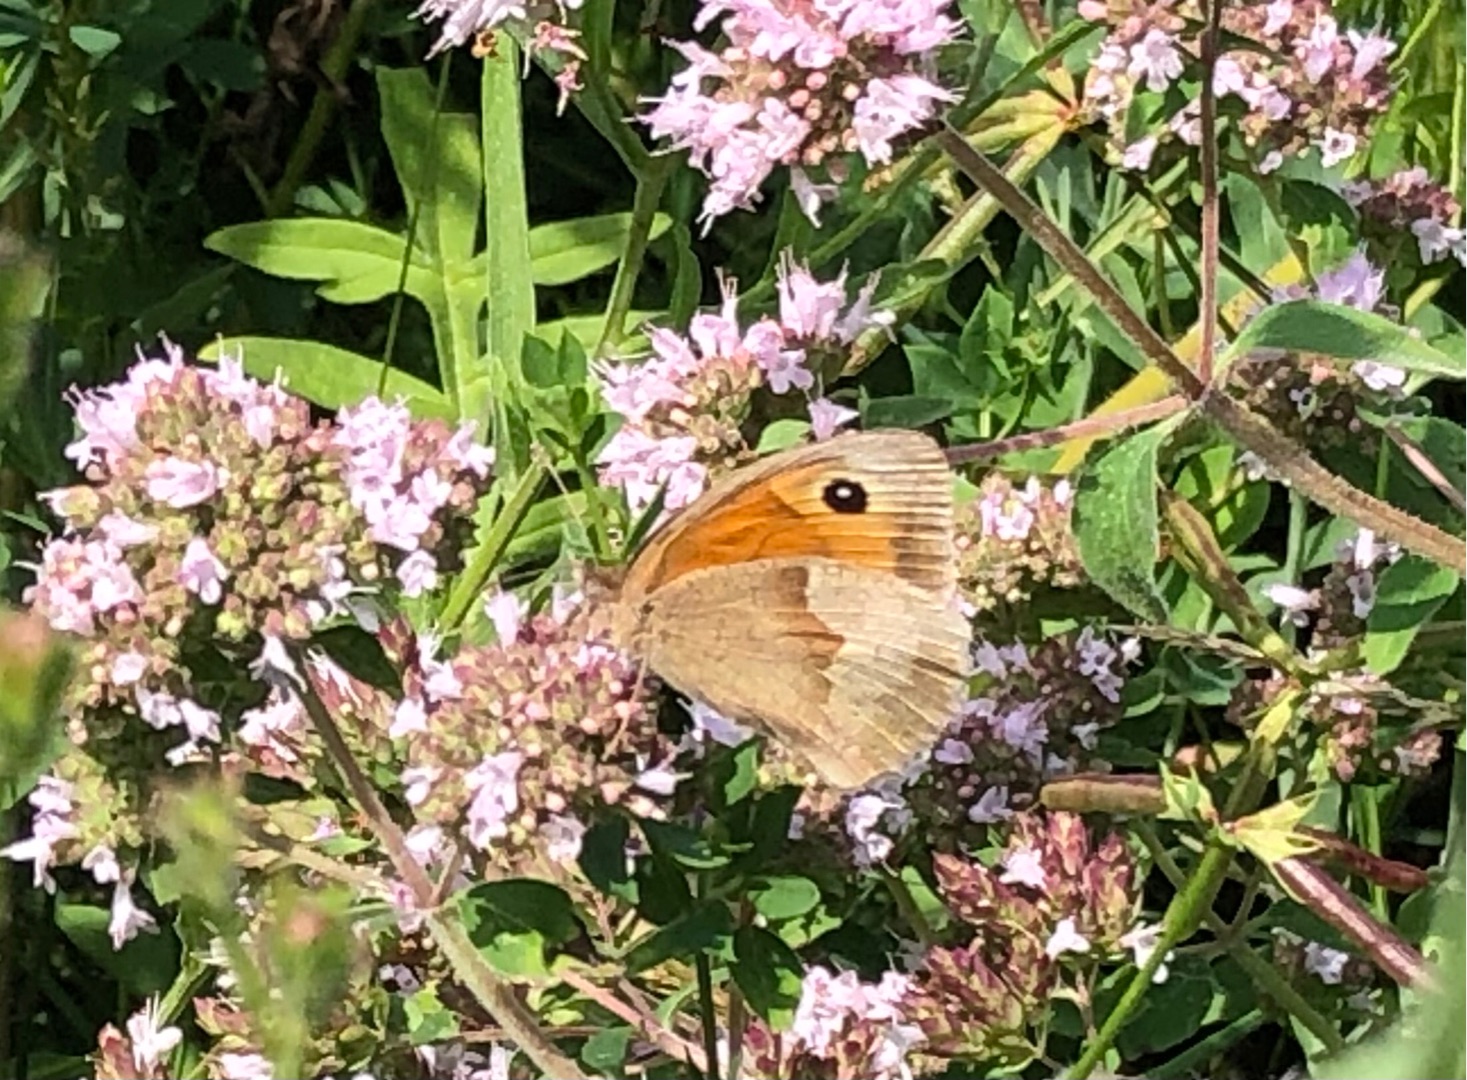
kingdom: Animalia
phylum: Arthropoda
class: Insecta
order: Lepidoptera
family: Nymphalidae
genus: Maniola
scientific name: Maniola jurtina
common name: Græsrandøje
